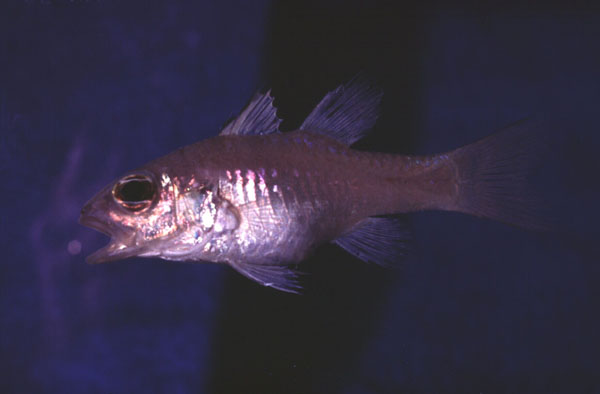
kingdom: Animalia
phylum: Chordata
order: Perciformes
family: Apogonidae
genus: Pristiapogon
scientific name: Pristiapogon abrogramma
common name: Lateralstripe cardinalfish
